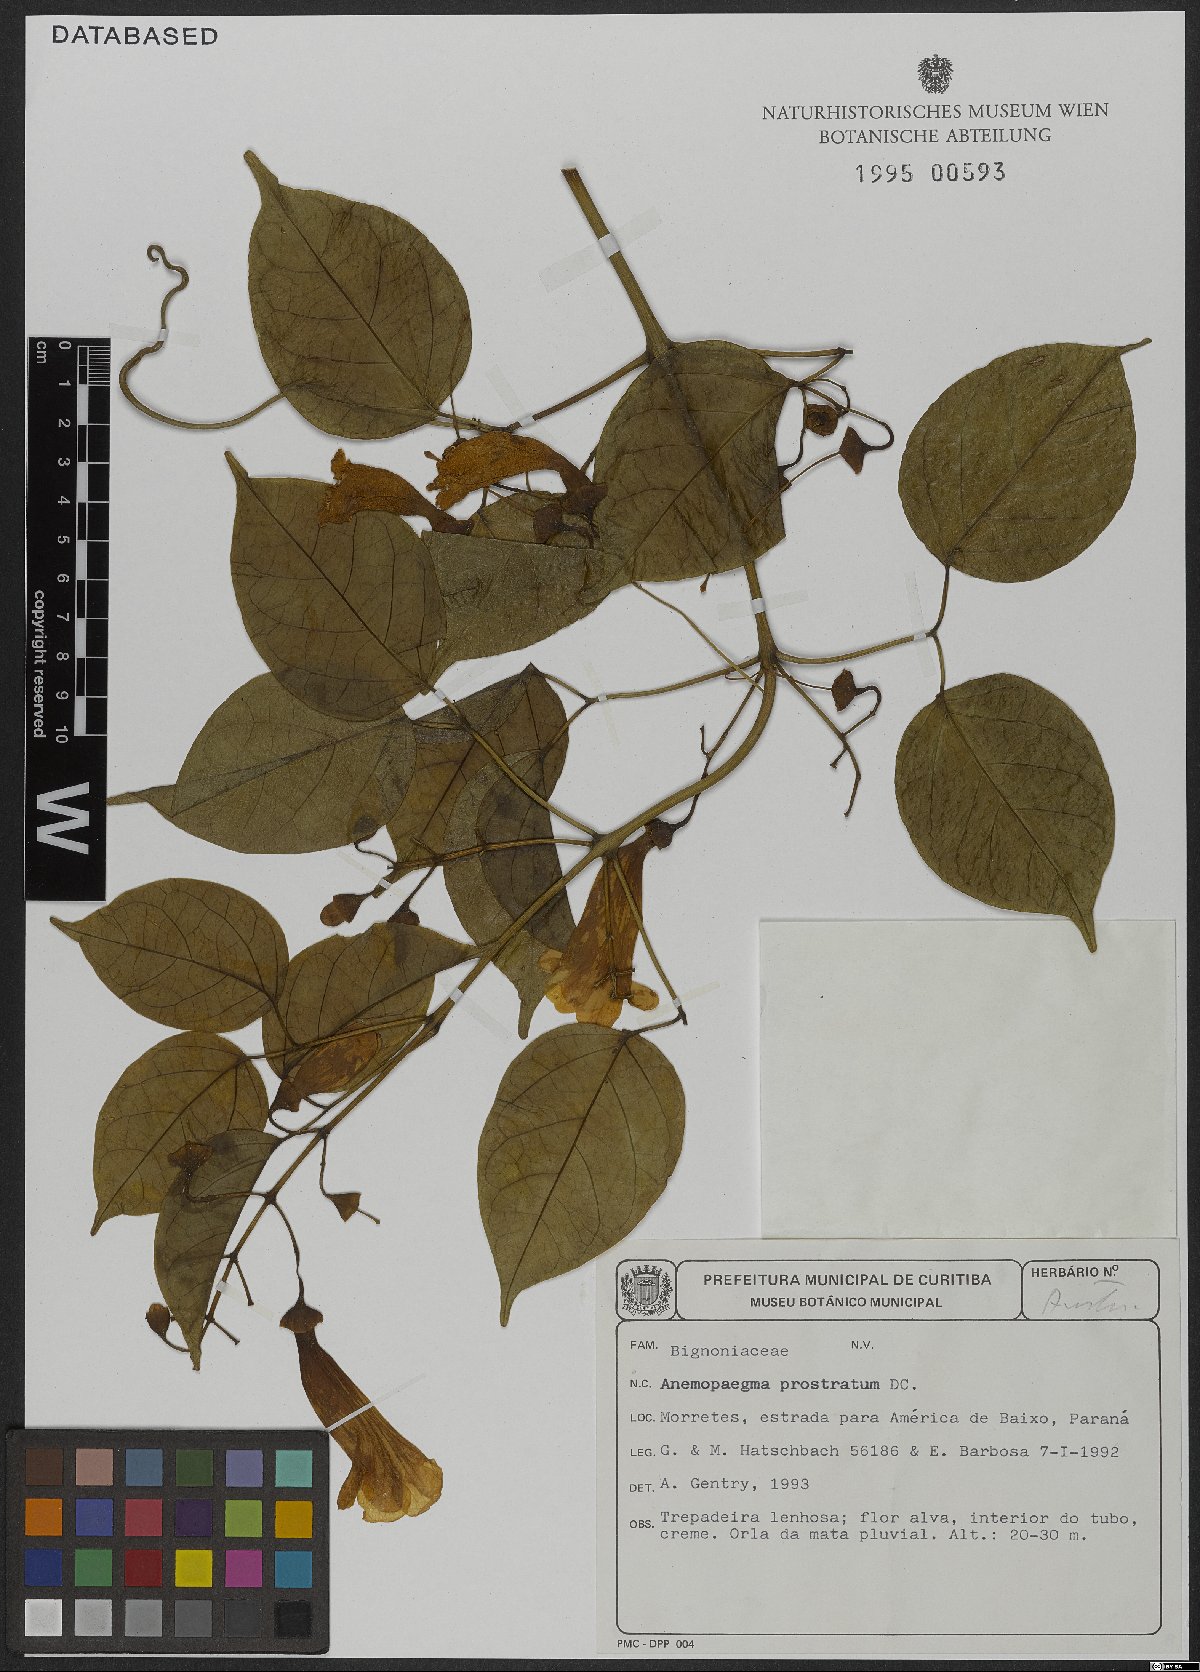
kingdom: Plantae
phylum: Tracheophyta
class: Magnoliopsida
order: Lamiales
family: Bignoniaceae
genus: Anemopaegma
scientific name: Anemopaegma prostratum
